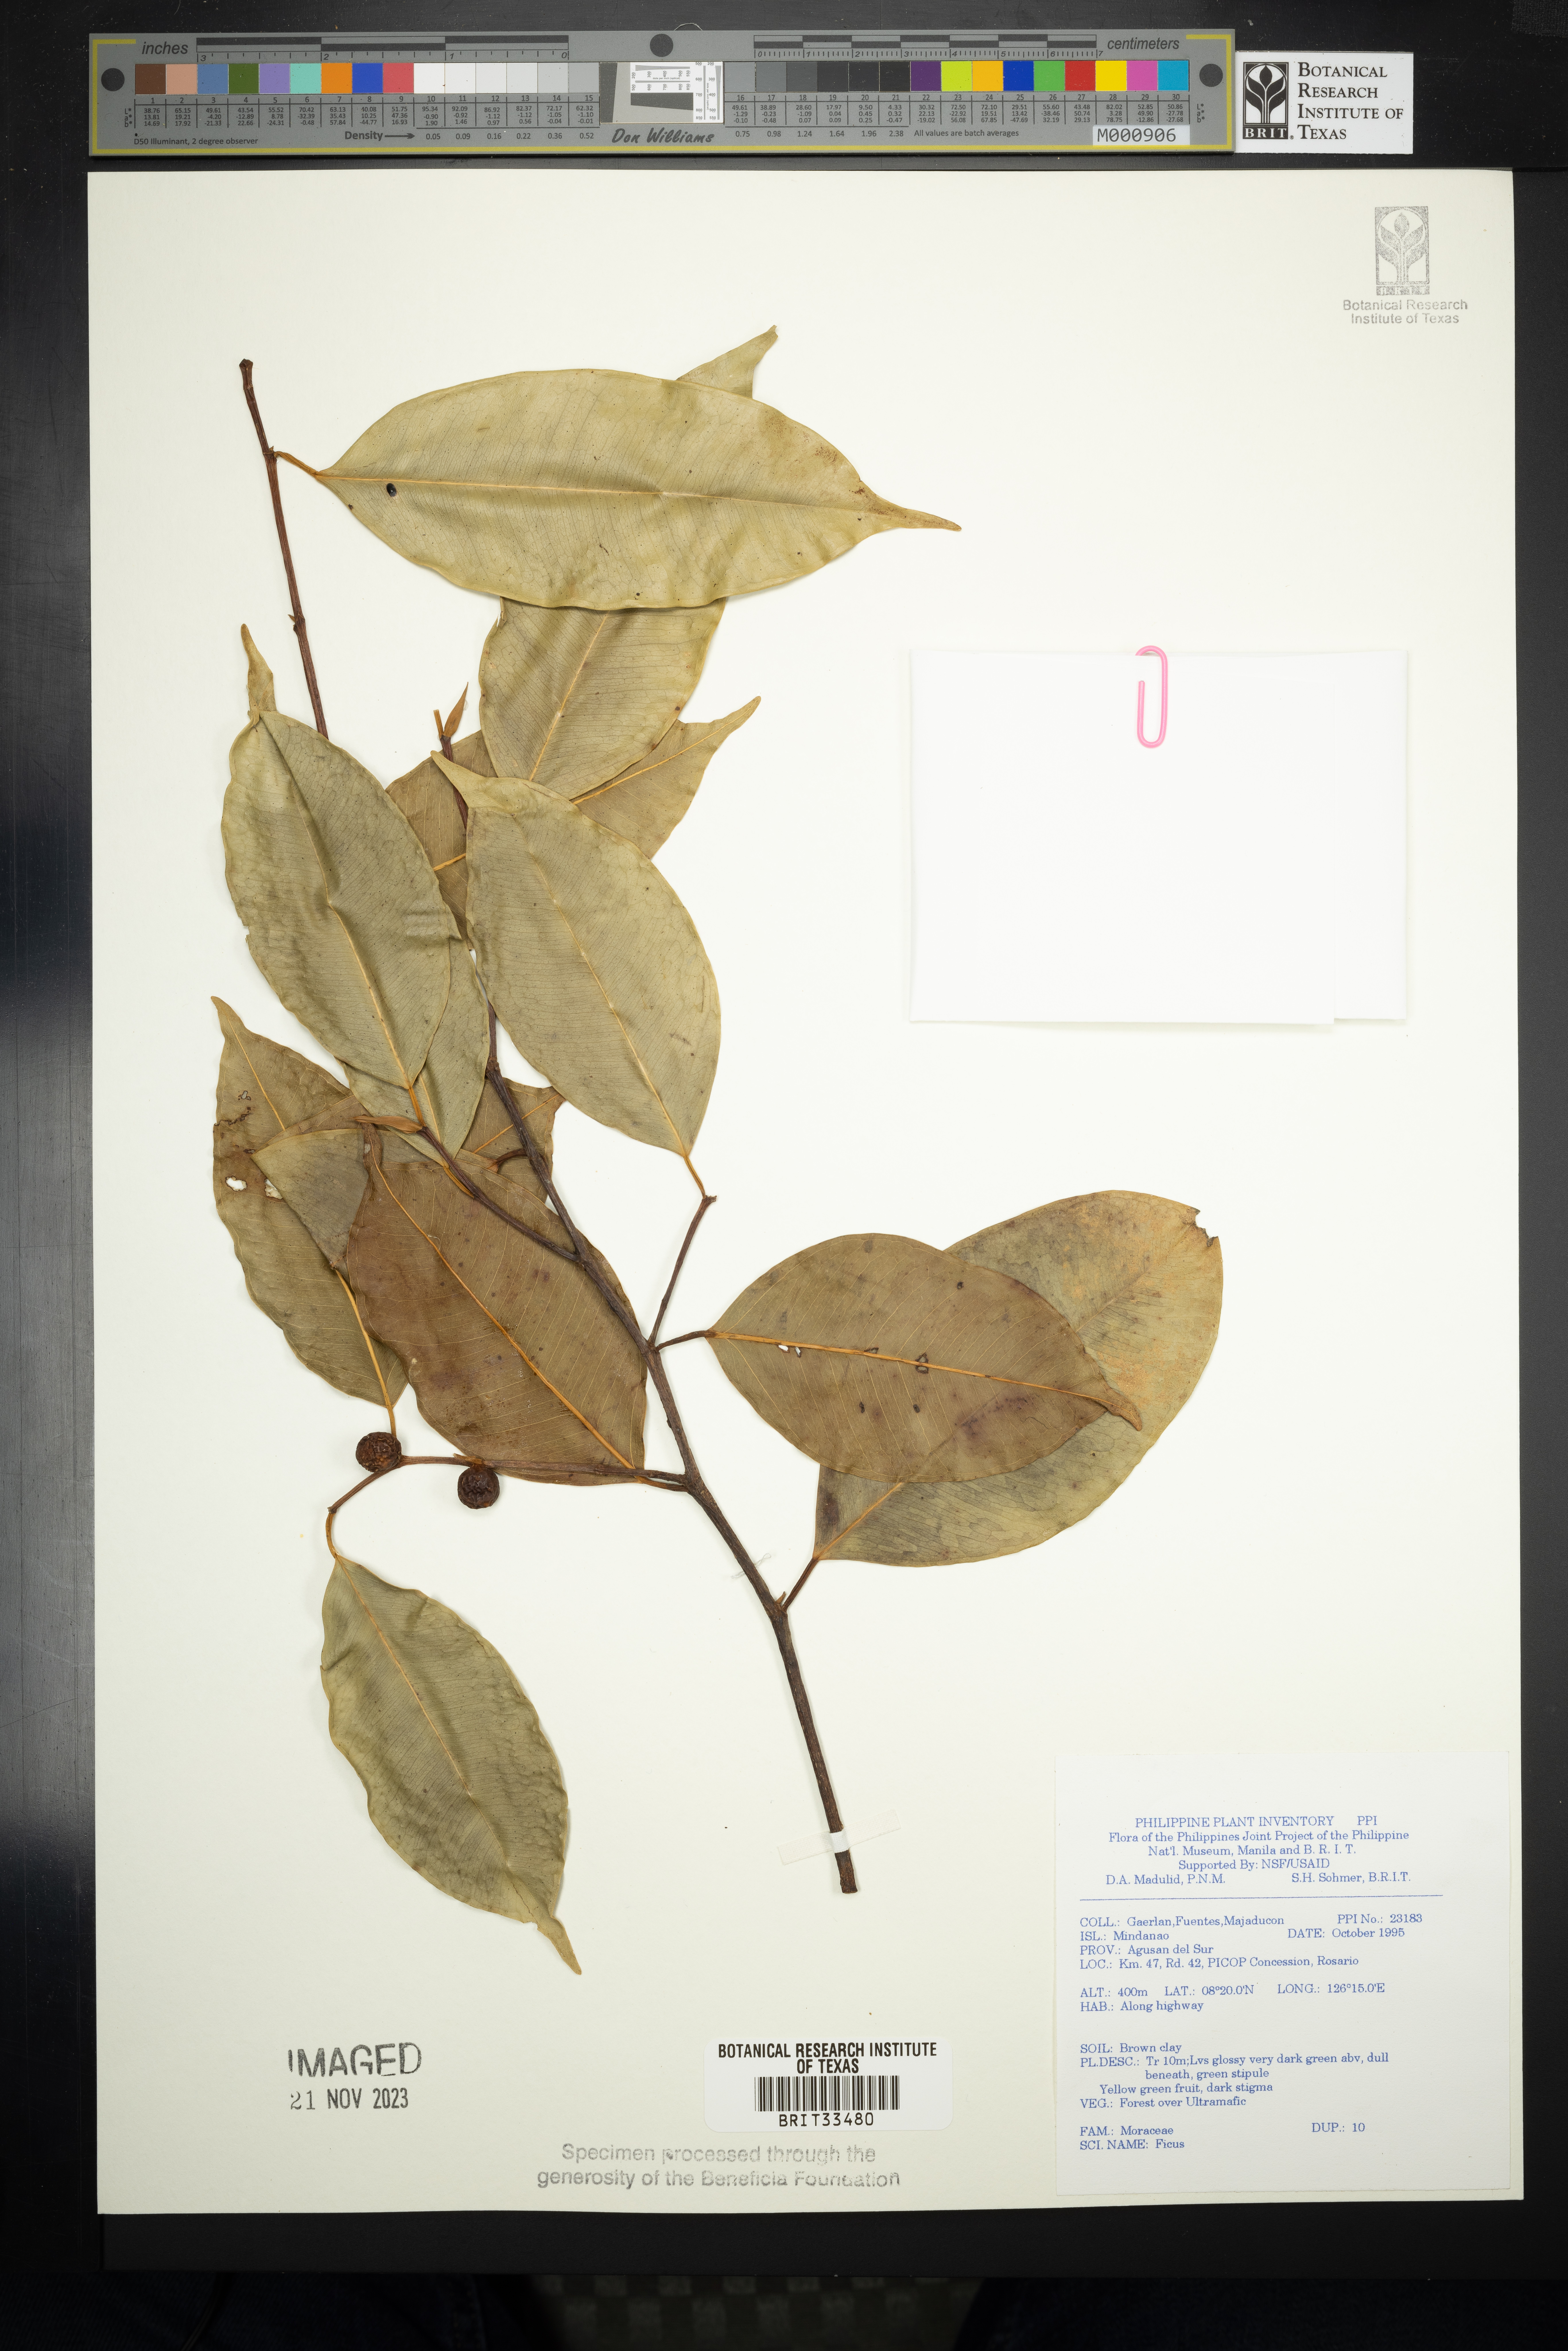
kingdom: Plantae
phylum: Tracheophyta
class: Magnoliopsida
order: Rosales
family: Moraceae
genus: Ficus
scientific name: Ficus
